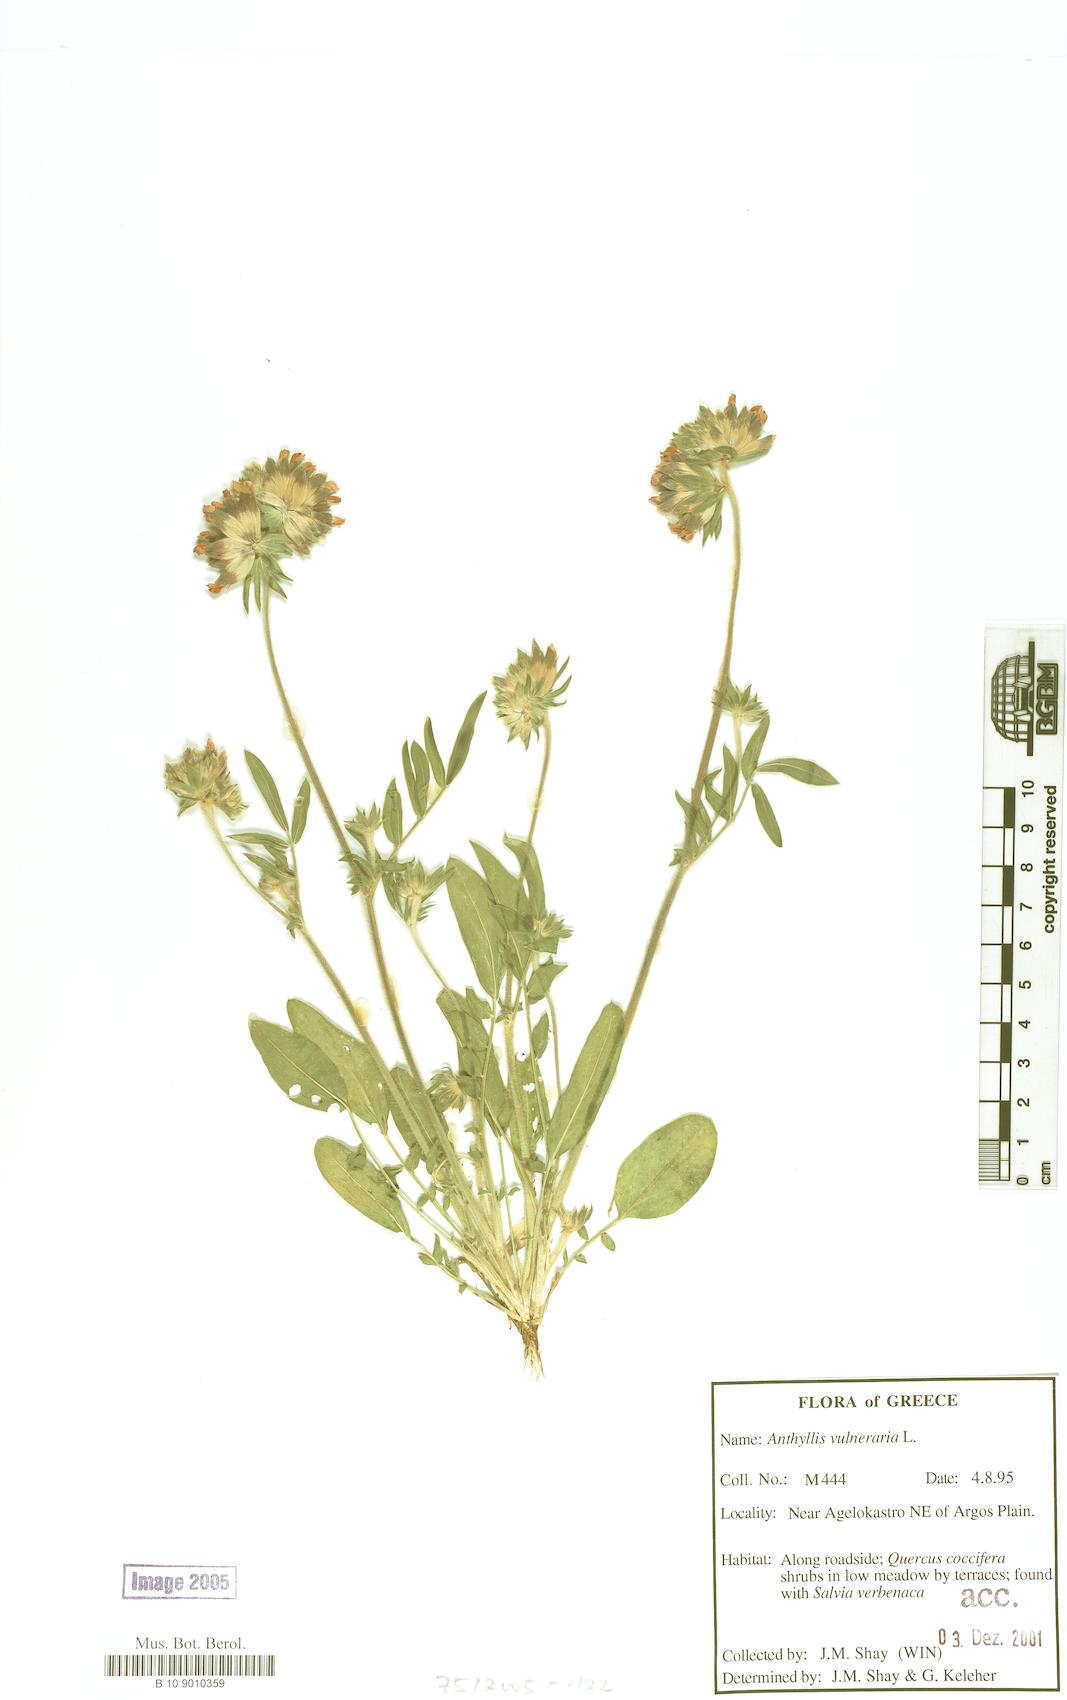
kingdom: Plantae
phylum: Tracheophyta
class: Magnoliopsida
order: Fabales
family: Fabaceae
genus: Anthyllis
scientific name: Anthyllis vulneraria
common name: Kidney vetch
